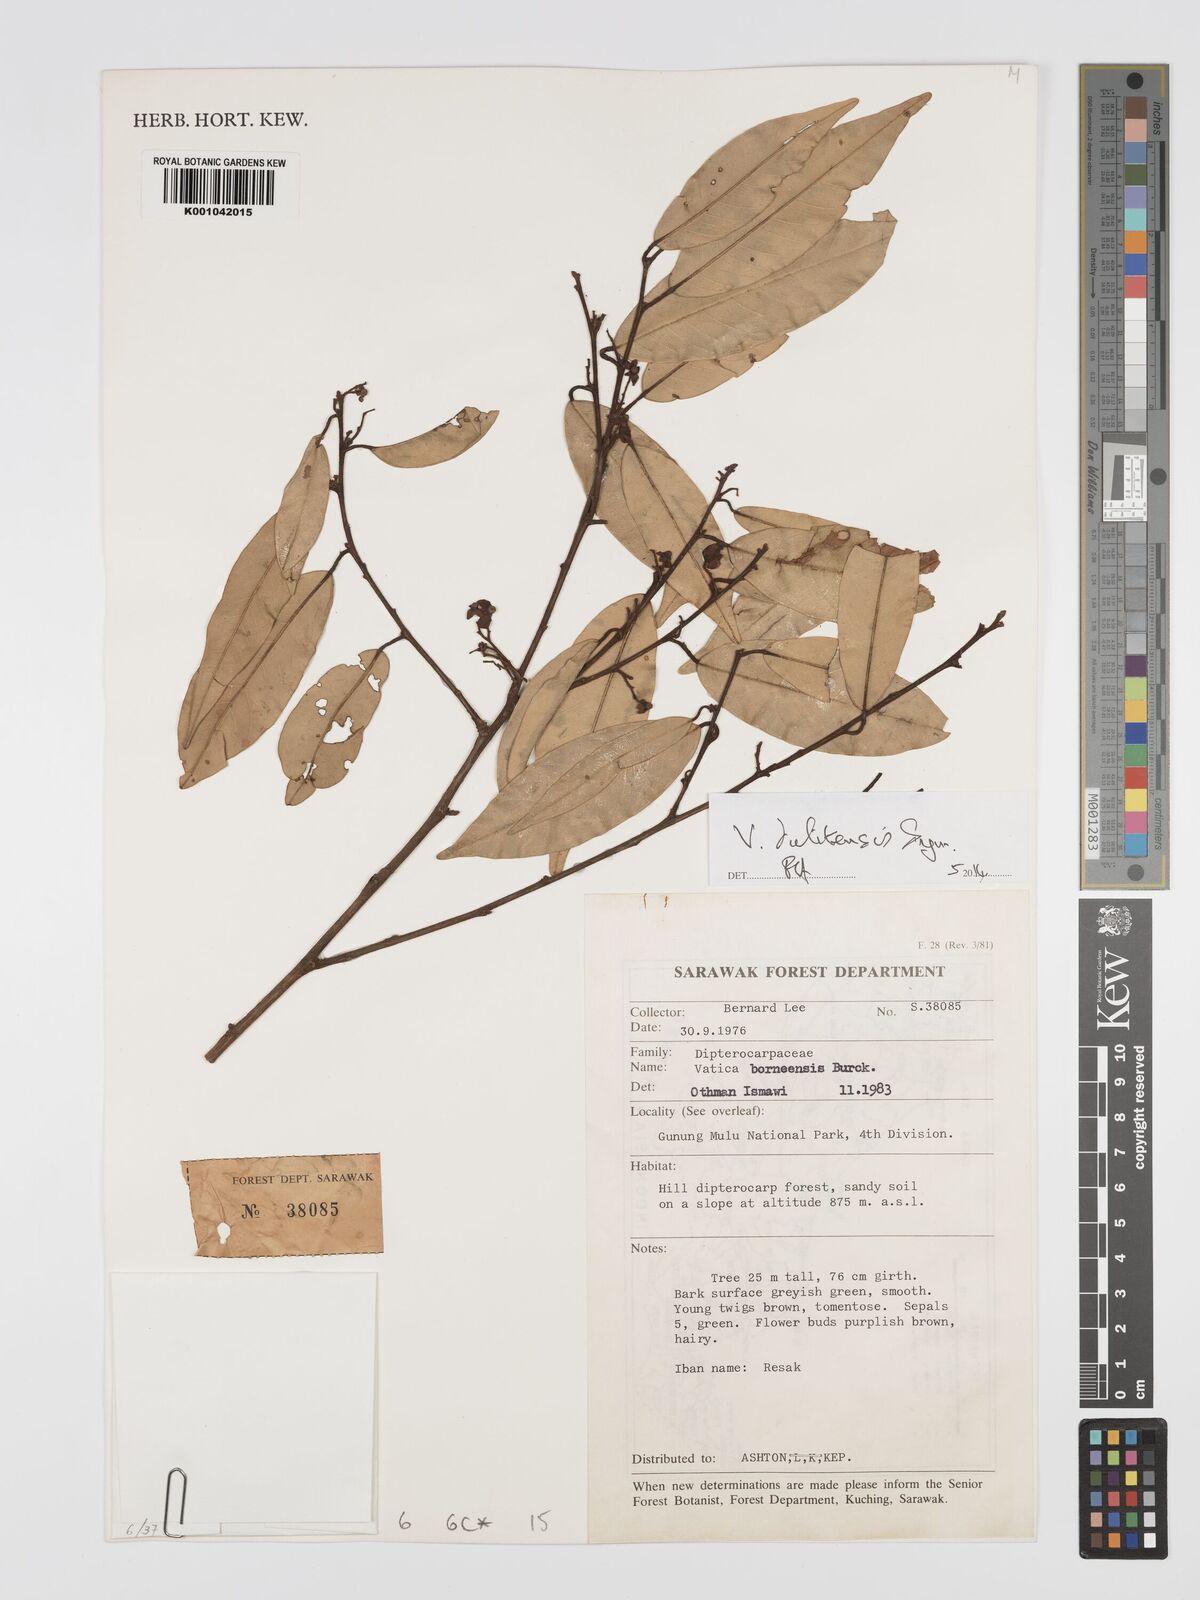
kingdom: Plantae
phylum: Tracheophyta
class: Magnoliopsida
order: Malvales
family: Dipterocarpaceae
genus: Vatica
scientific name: Vatica dulitensis
